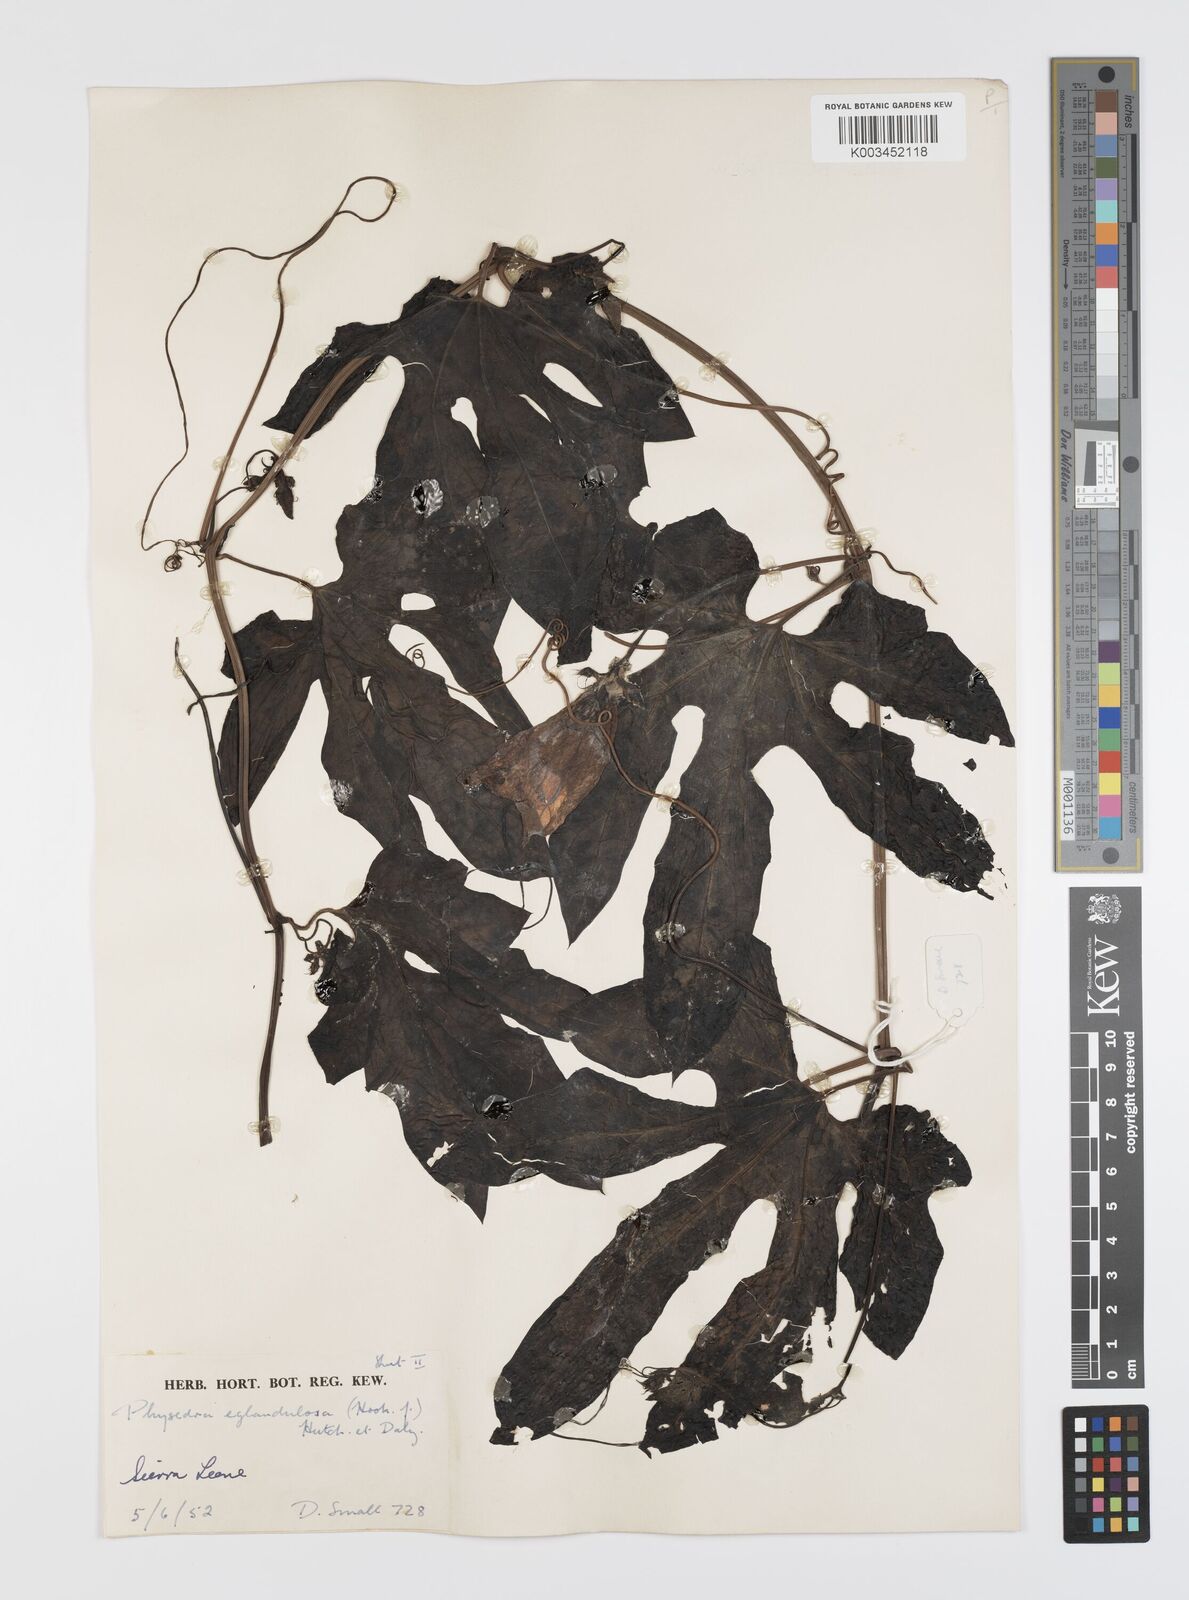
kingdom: Plantae
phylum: Tracheophyta
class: Magnoliopsida
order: Cucurbitales
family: Cucurbitaceae
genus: Ruthalicia
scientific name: Ruthalicia eglandulosa
